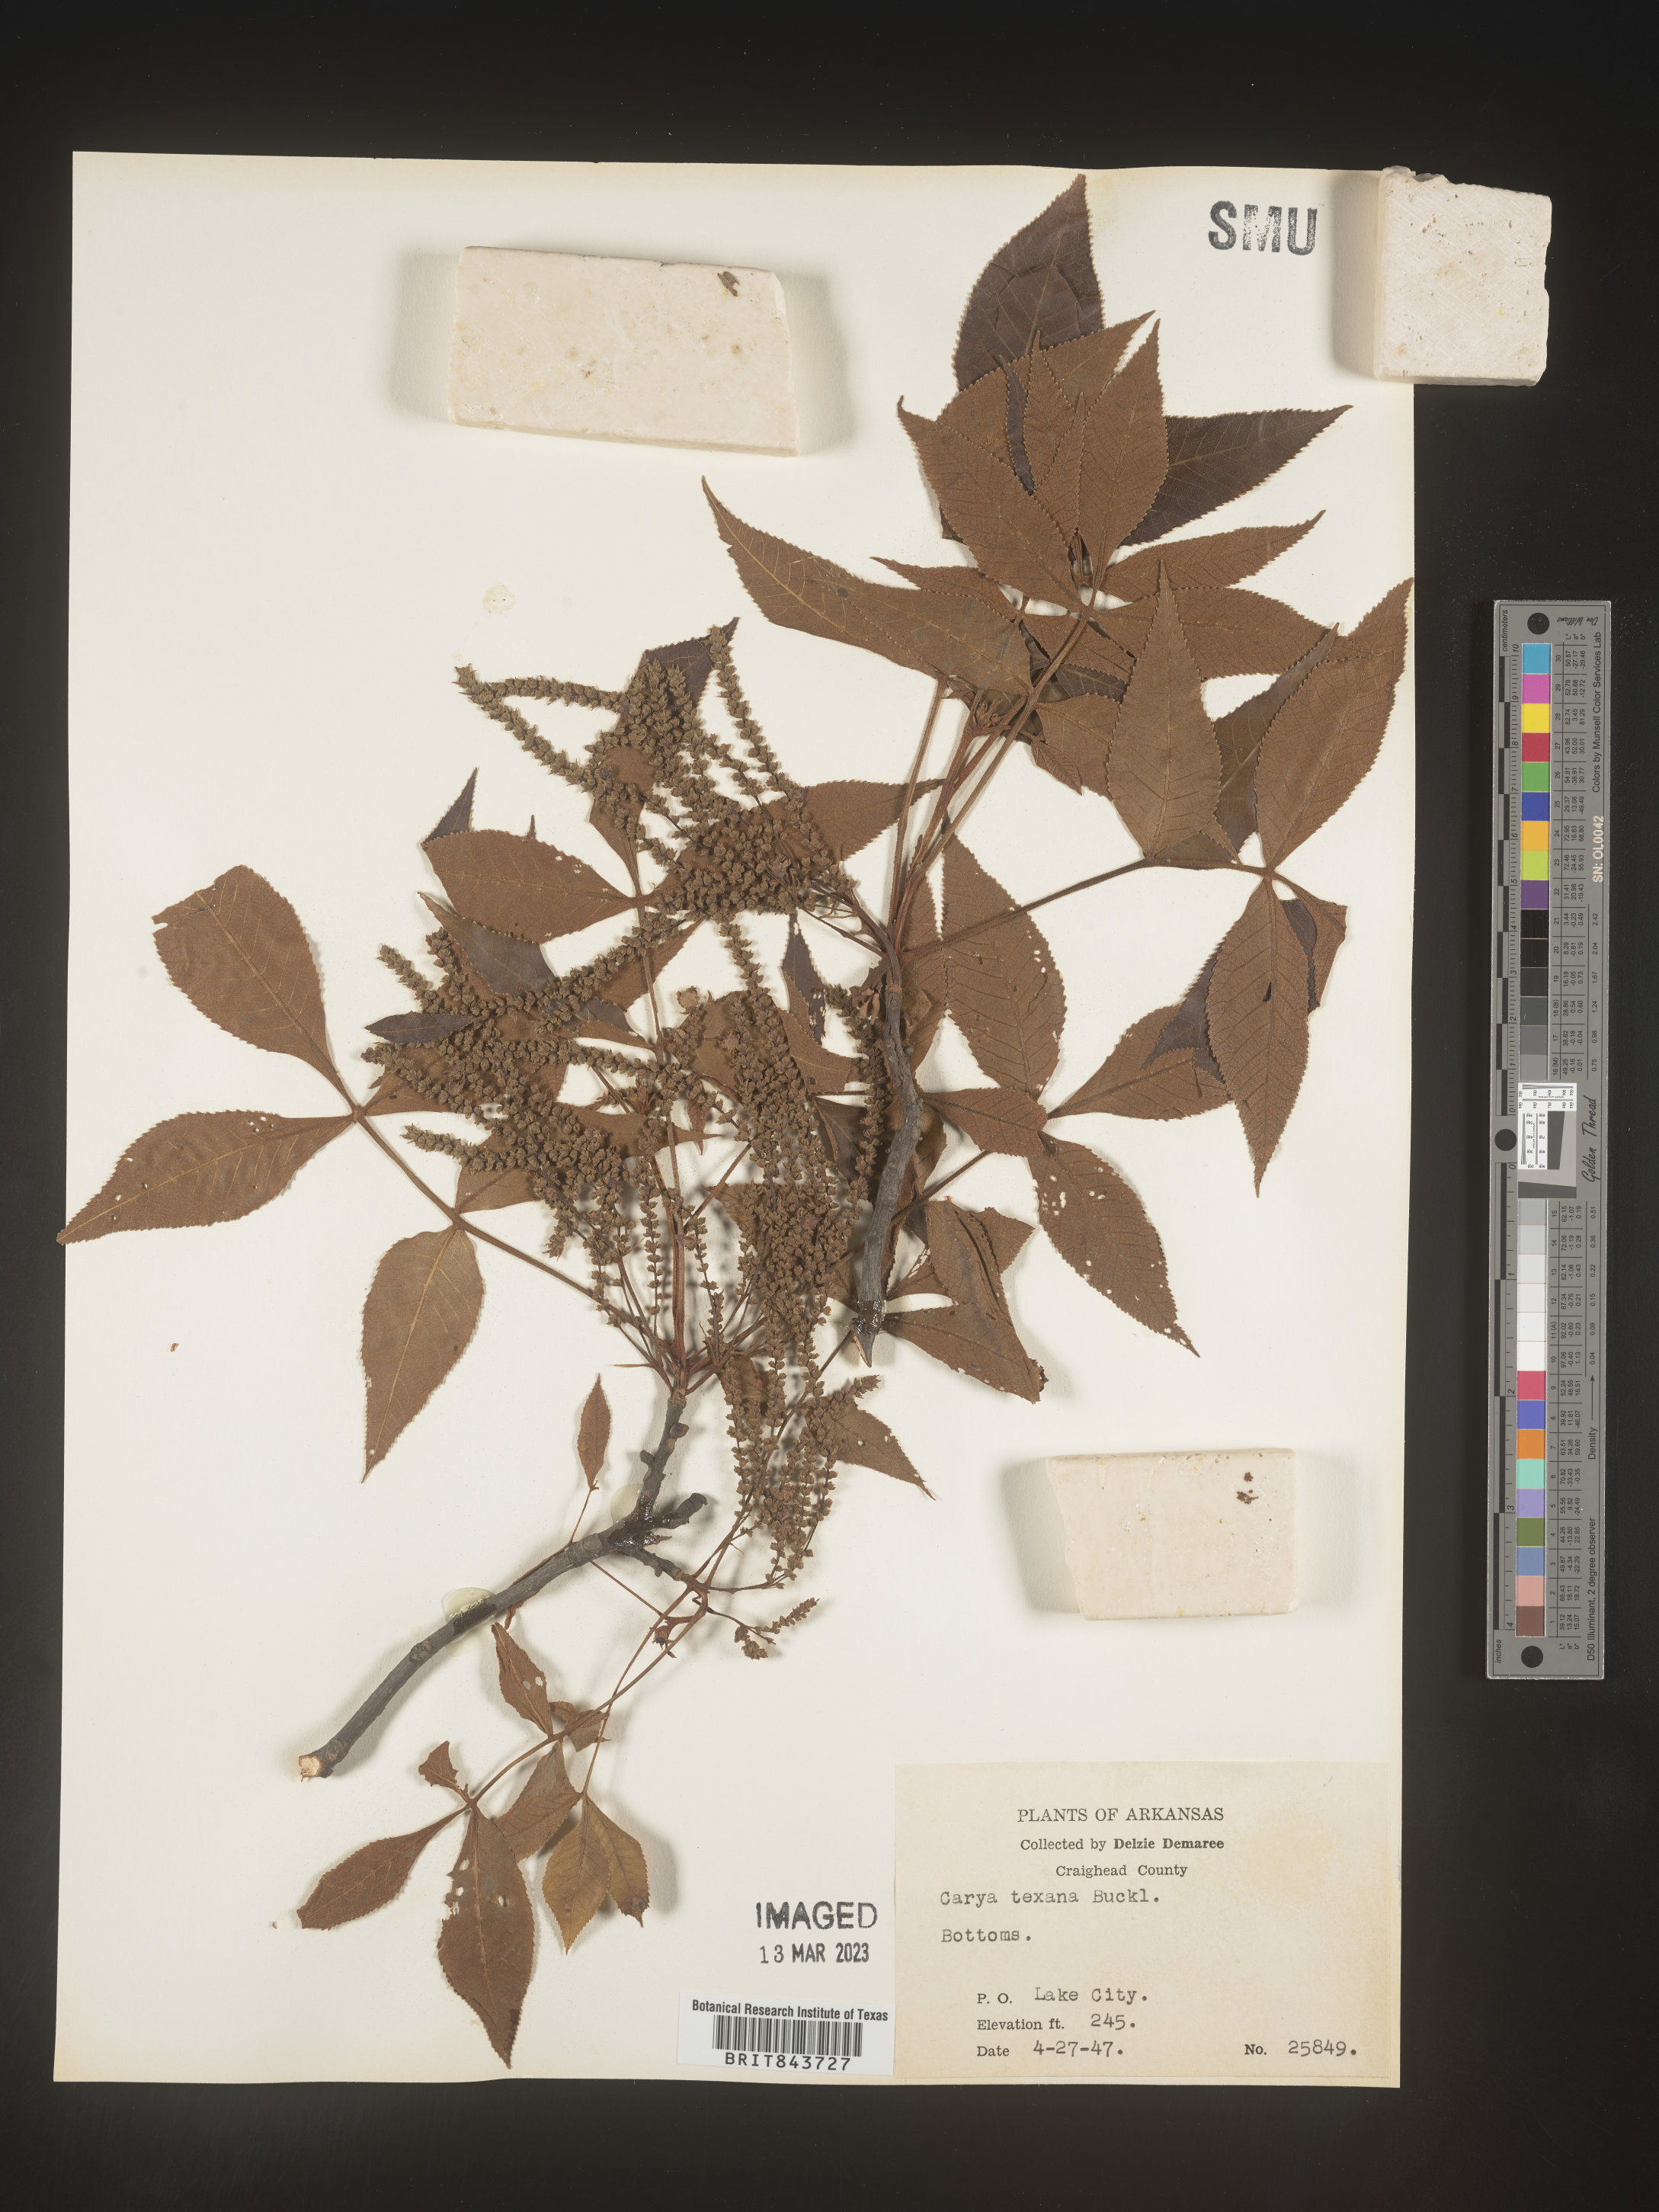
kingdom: Plantae
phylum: Tracheophyta
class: Magnoliopsida
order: Fagales
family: Juglandaceae
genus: Carya
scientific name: Carya texana
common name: Black hickory
